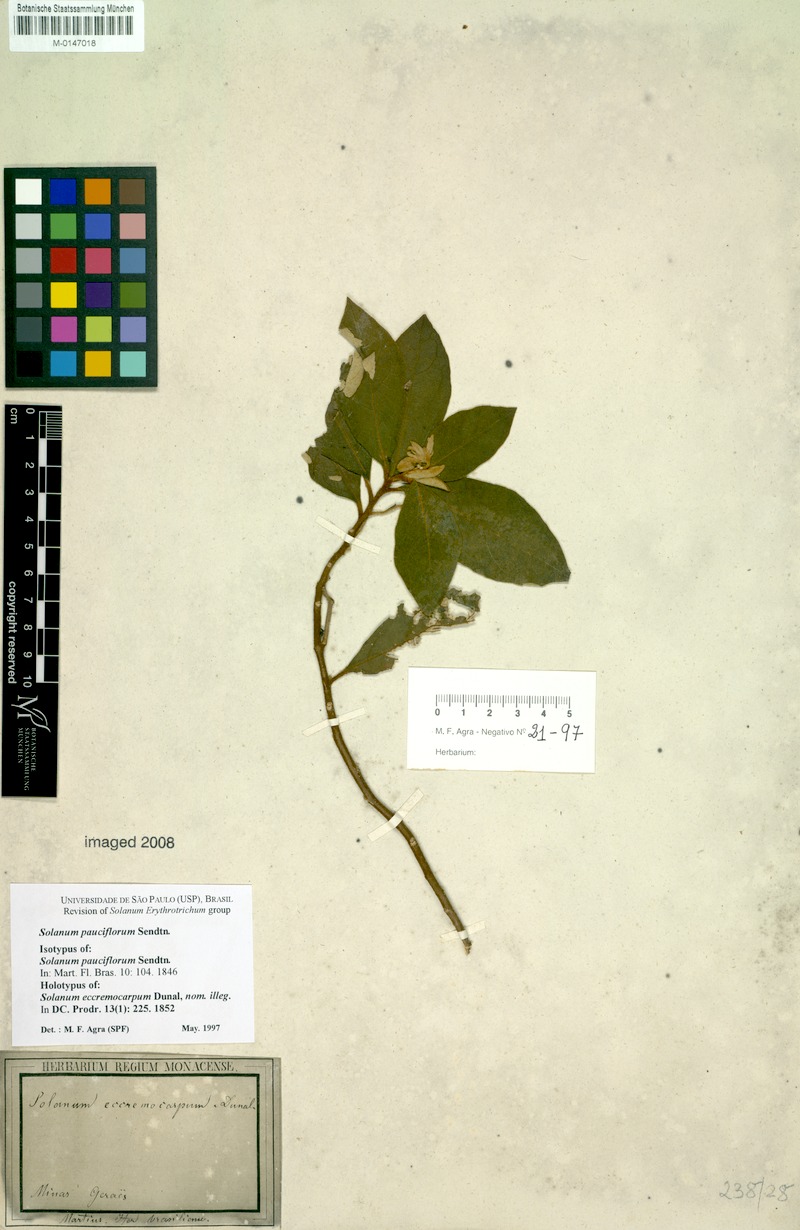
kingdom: Plantae
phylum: Tracheophyta
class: Magnoliopsida
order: Solanales
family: Solanaceae
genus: Solanum
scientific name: Solanum rhytidoandrum
